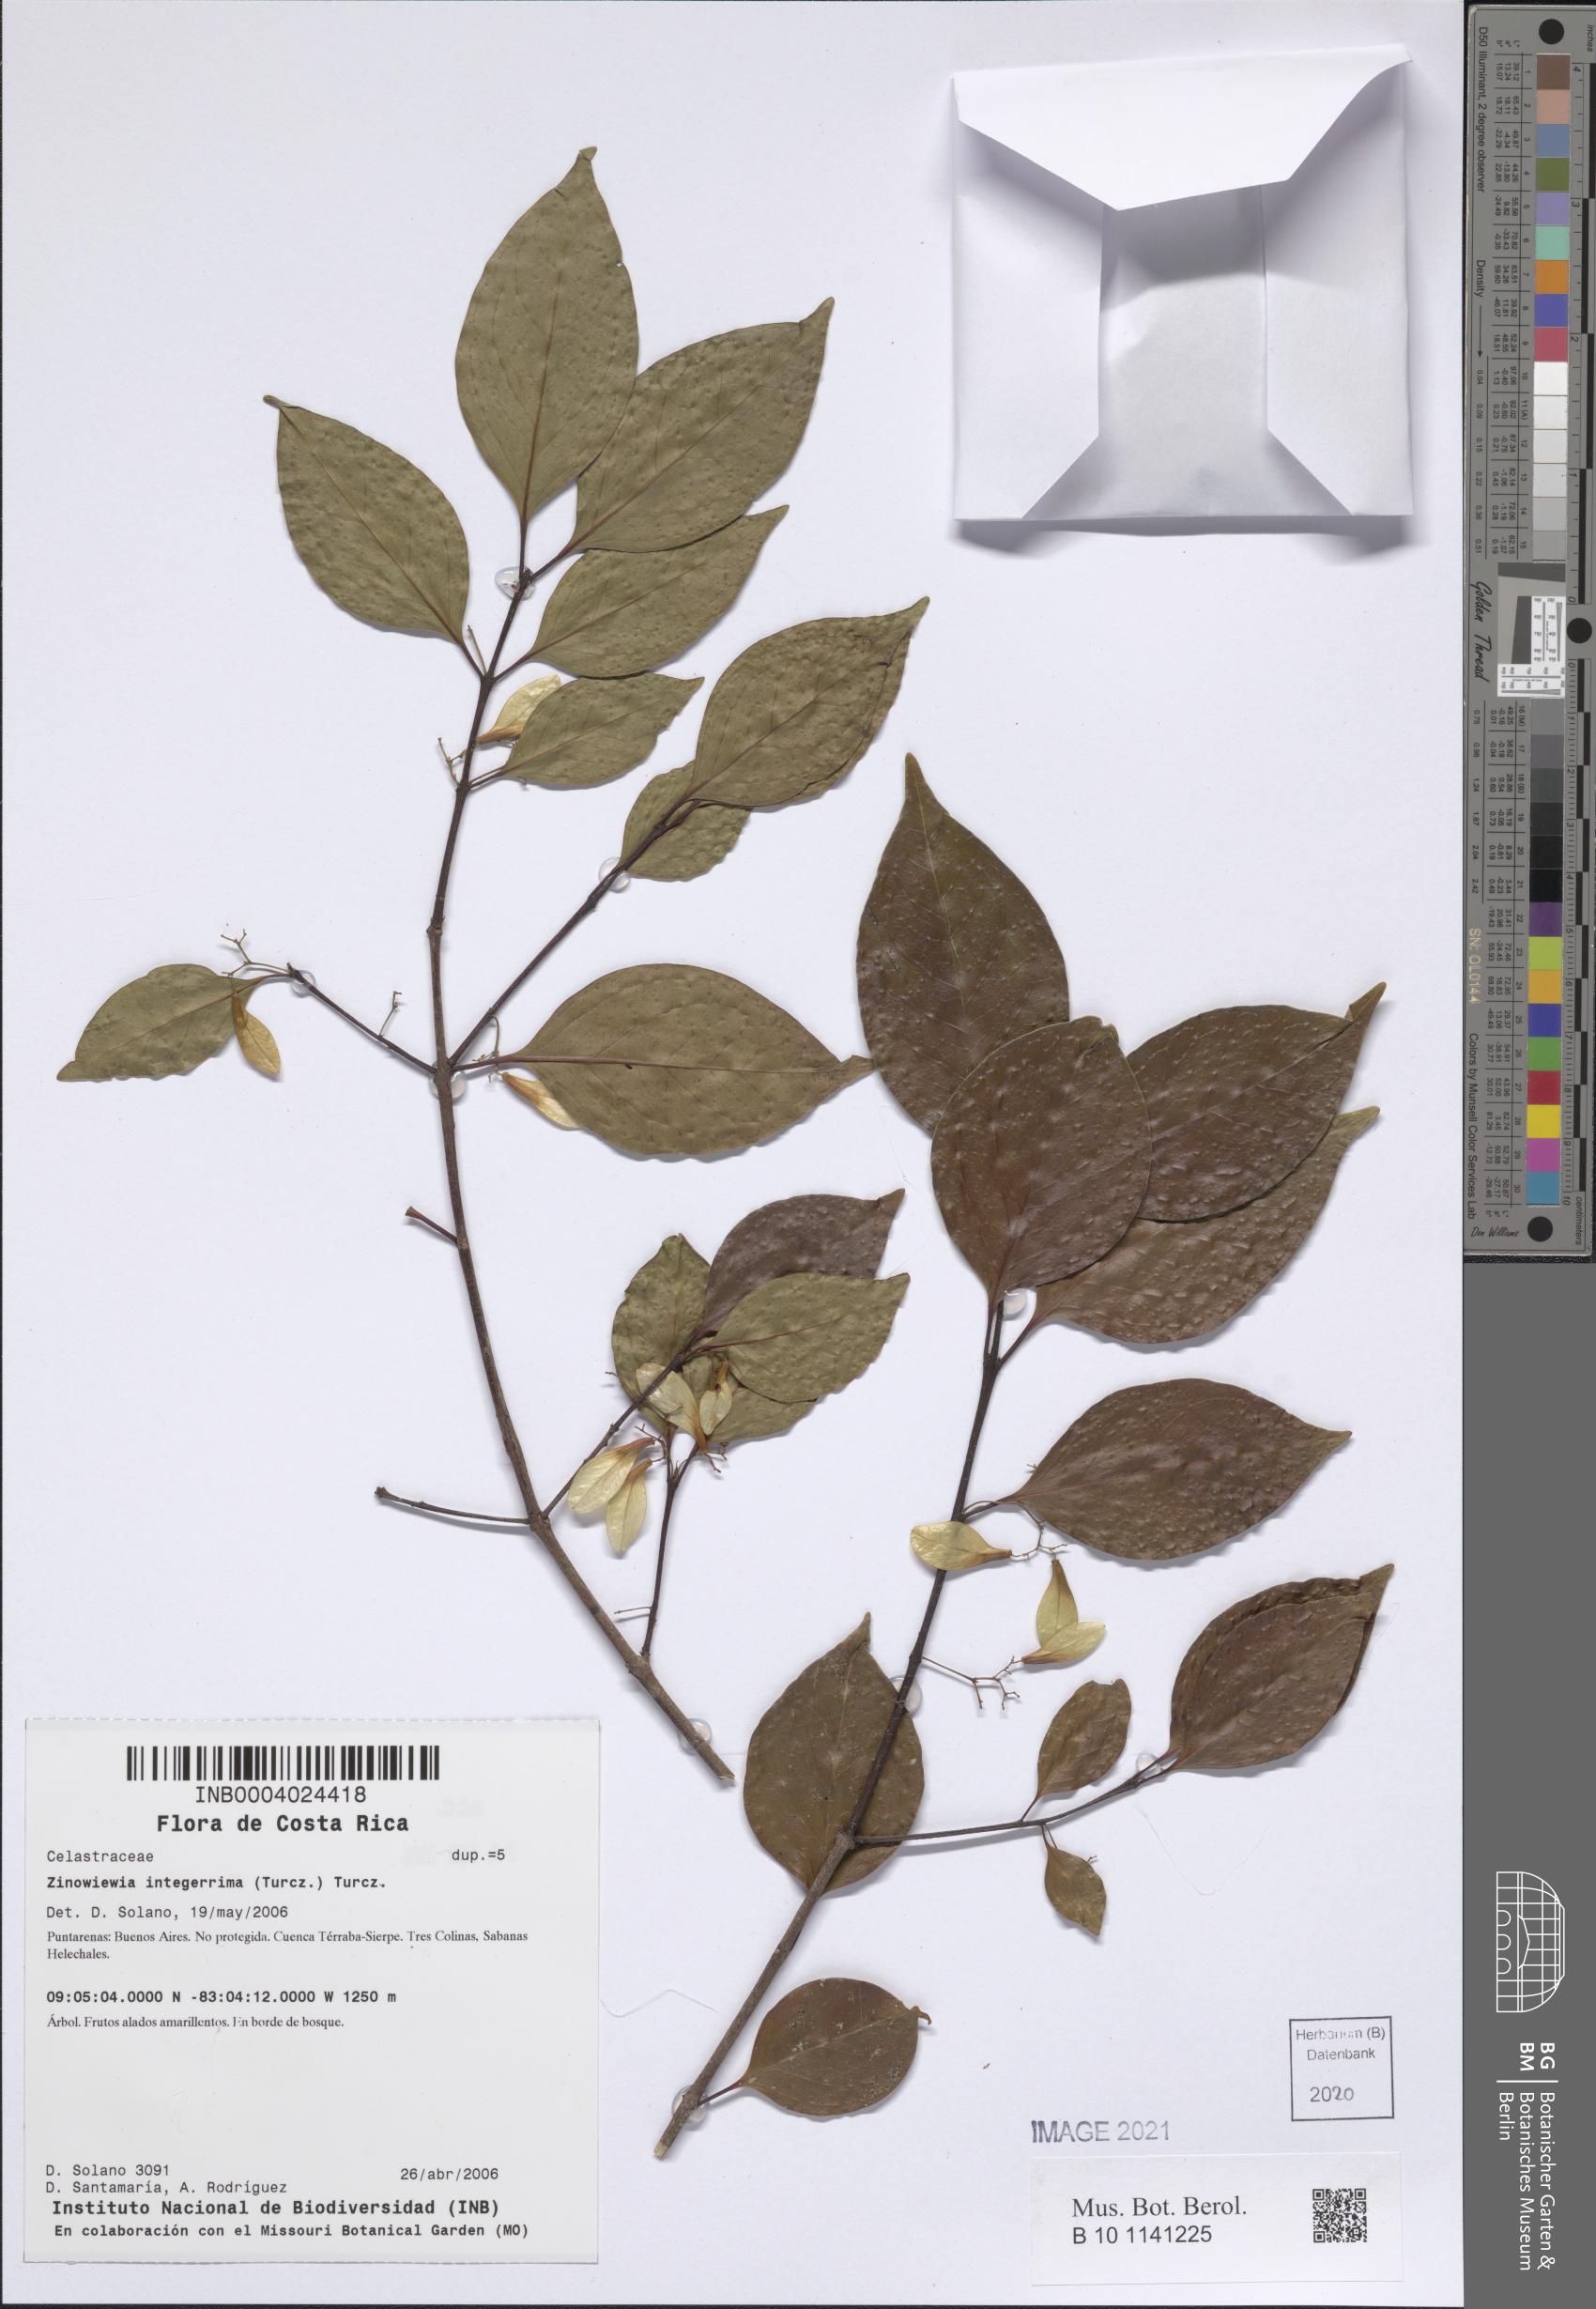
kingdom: Plantae
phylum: Tracheophyta
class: Magnoliopsida
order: Celastrales
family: Celastraceae
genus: Zinowiewia
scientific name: Zinowiewia integerrima
